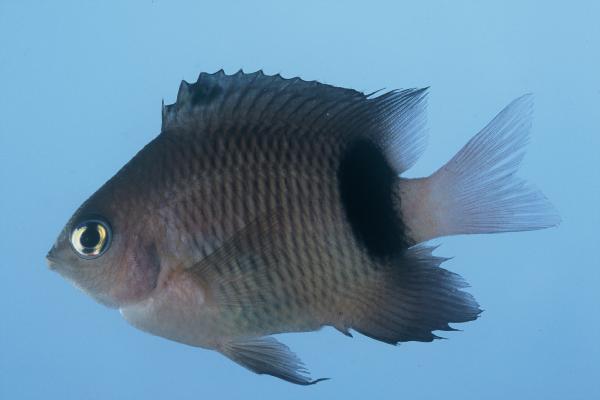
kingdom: Animalia
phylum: Chordata
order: Perciformes
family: Pomacentridae
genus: Plectroglyphidodon
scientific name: Plectroglyphidodon dickii
